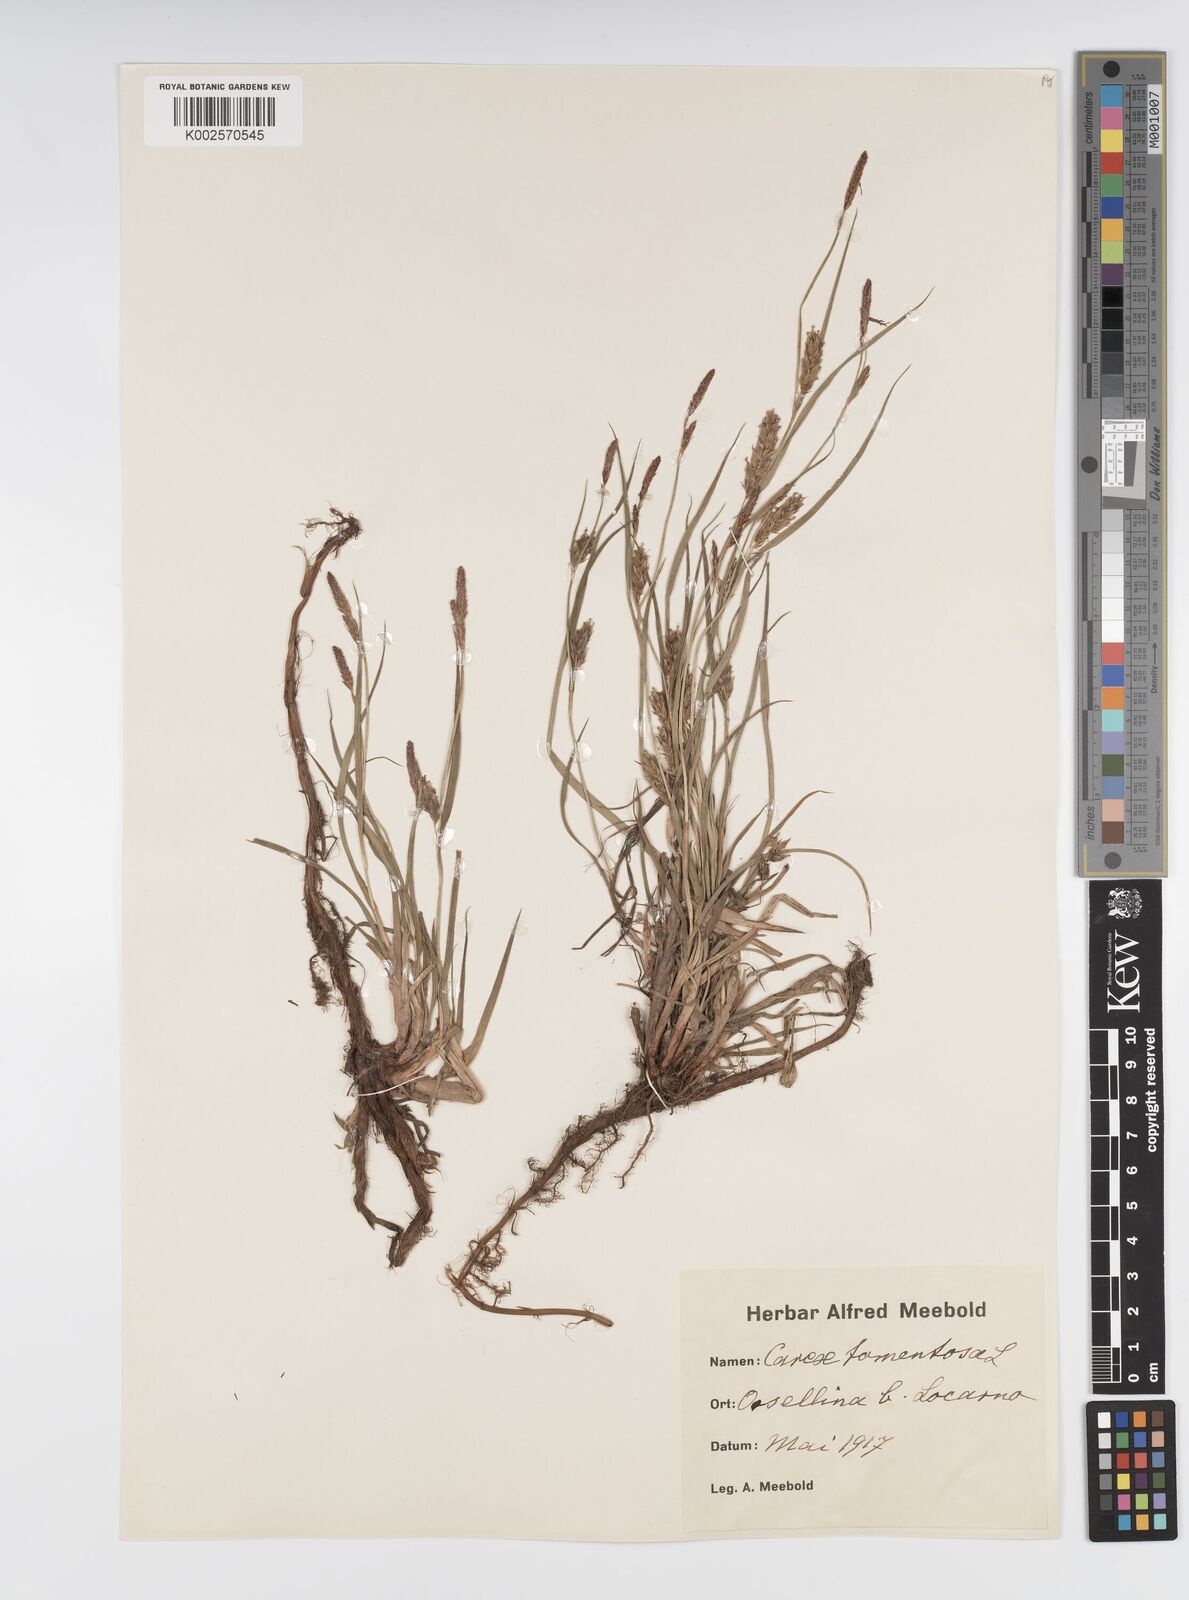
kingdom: Plantae
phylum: Tracheophyta
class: Liliopsida
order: Poales
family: Cyperaceae
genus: Carex
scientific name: Carex montana
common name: Soft-leaved sedge
